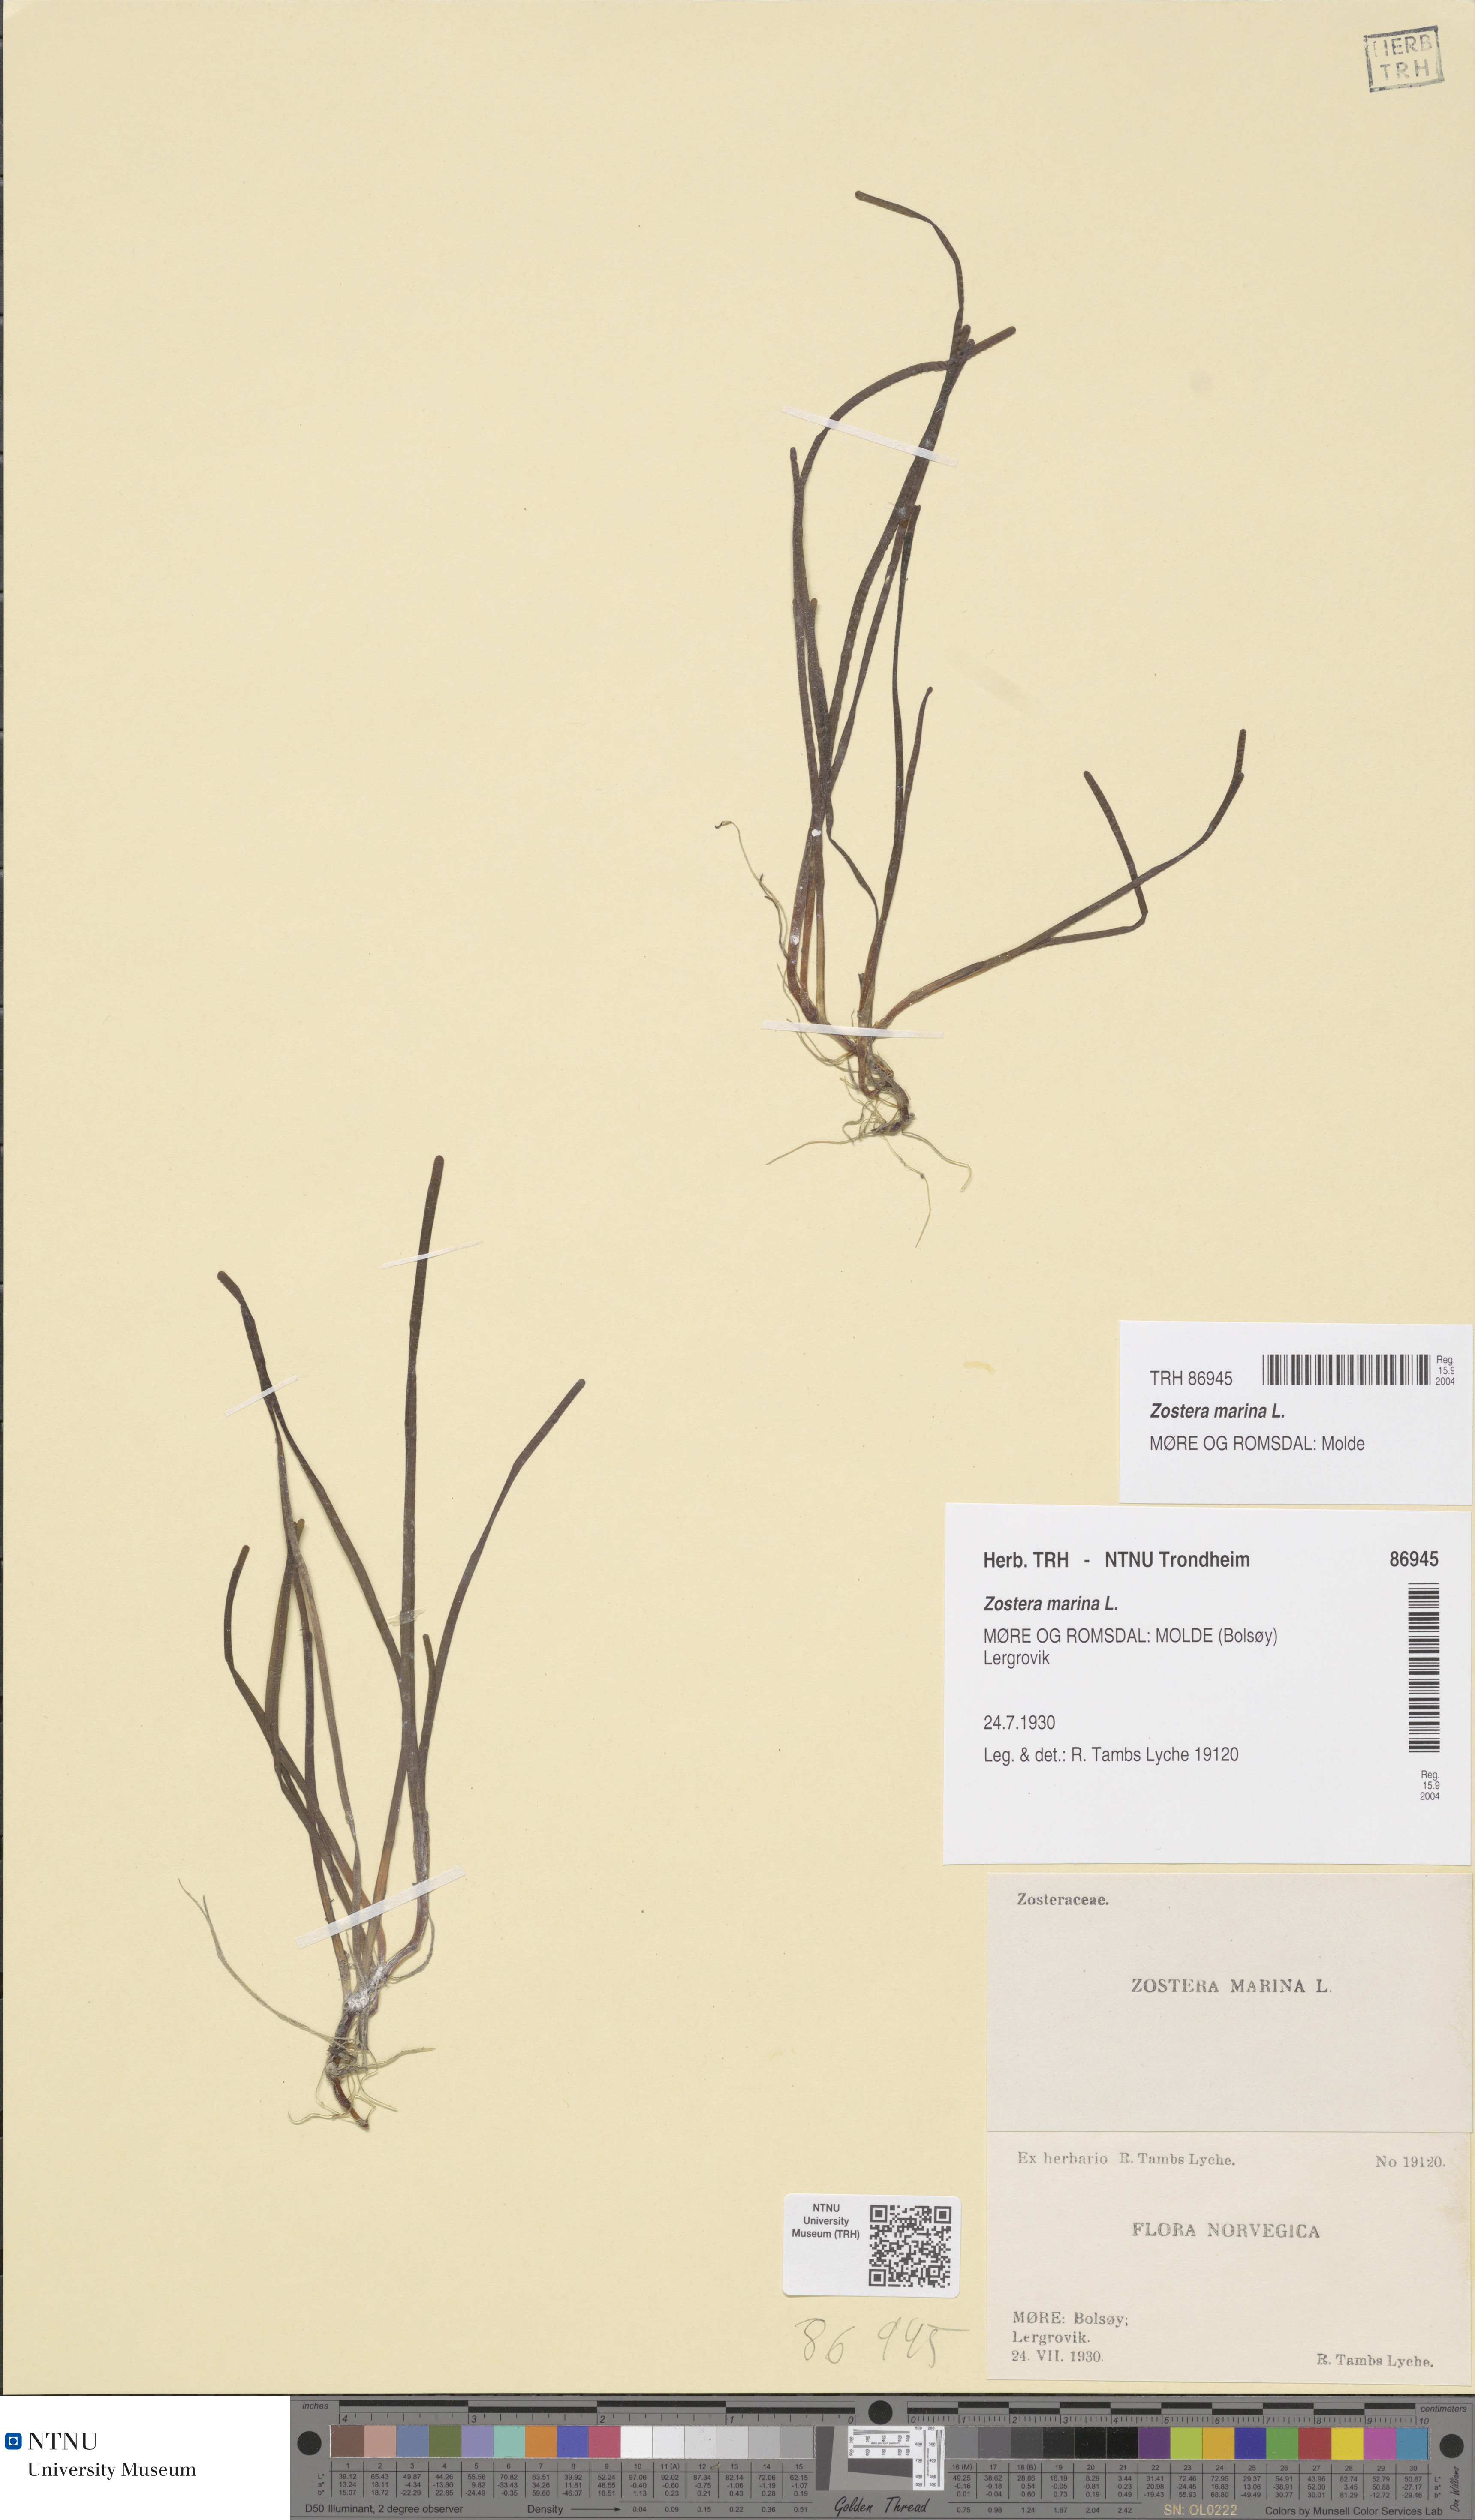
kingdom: Plantae
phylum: Tracheophyta
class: Liliopsida
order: Alismatales
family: Zosteraceae
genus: Zostera
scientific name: Zostera angustifolia
